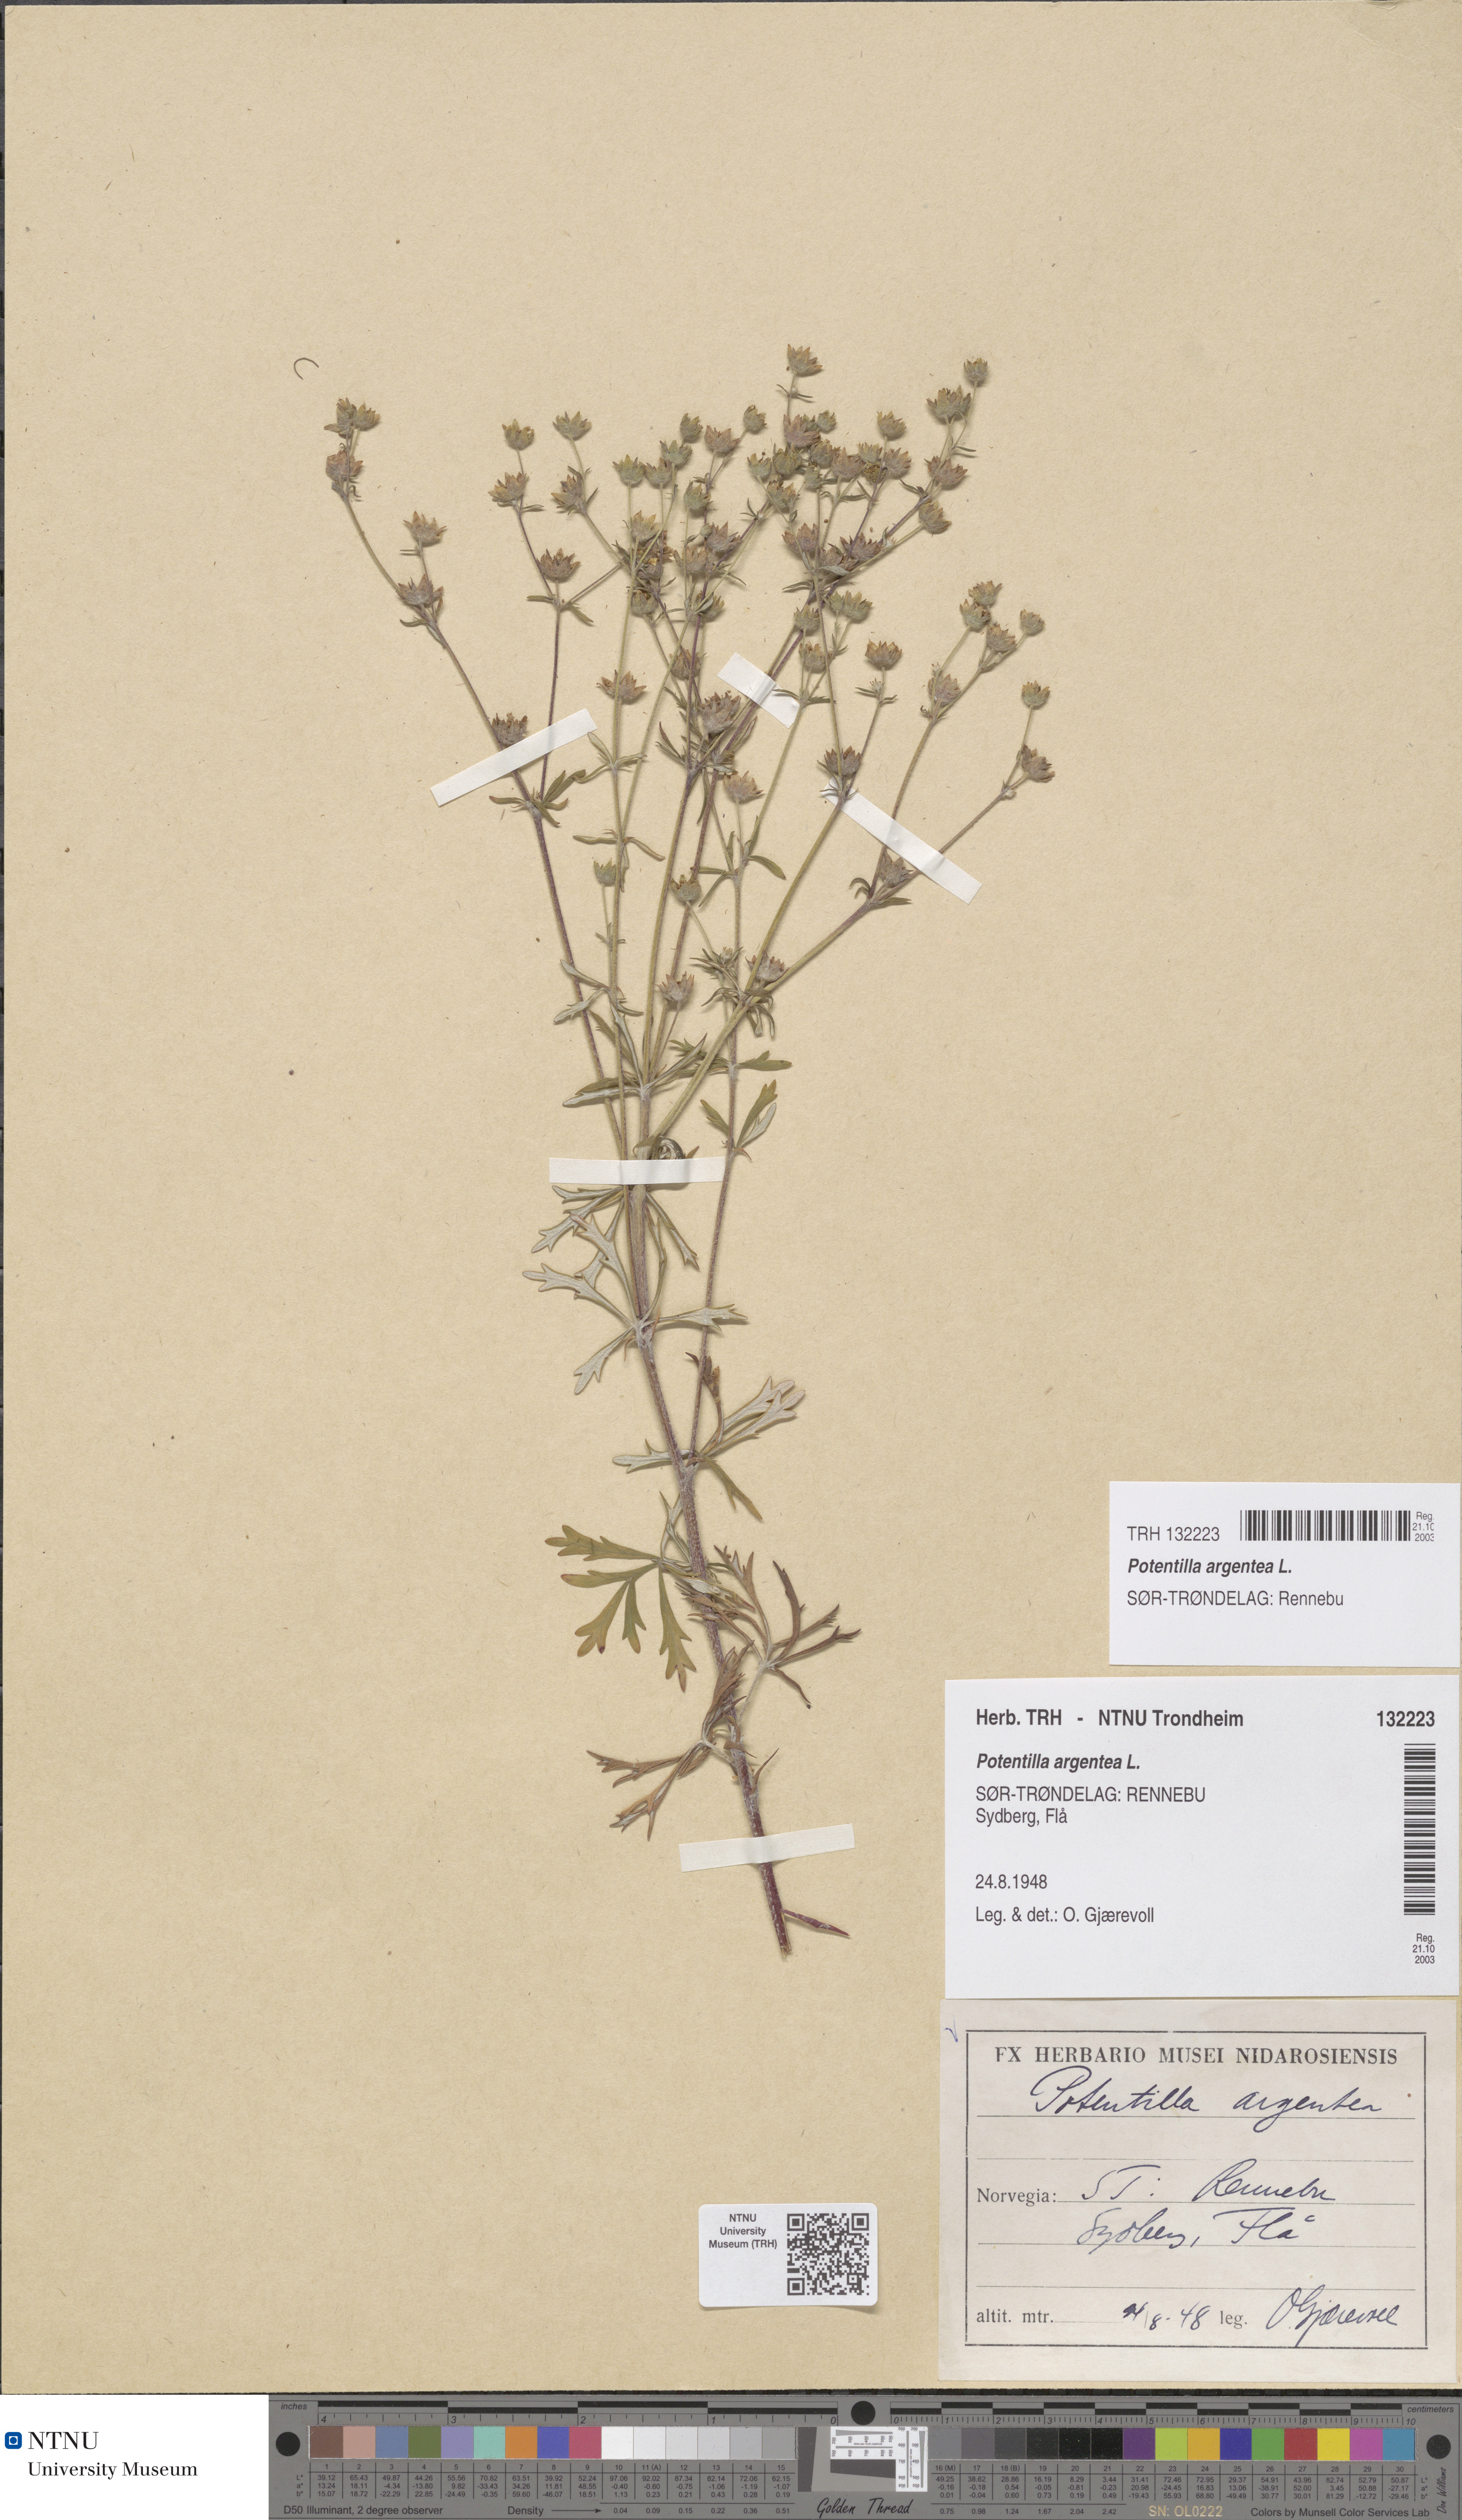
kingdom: Plantae
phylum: Tracheophyta
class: Magnoliopsida
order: Rosales
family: Rosaceae
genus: Potentilla
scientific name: Potentilla argentea
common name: Hoary cinquefoil
